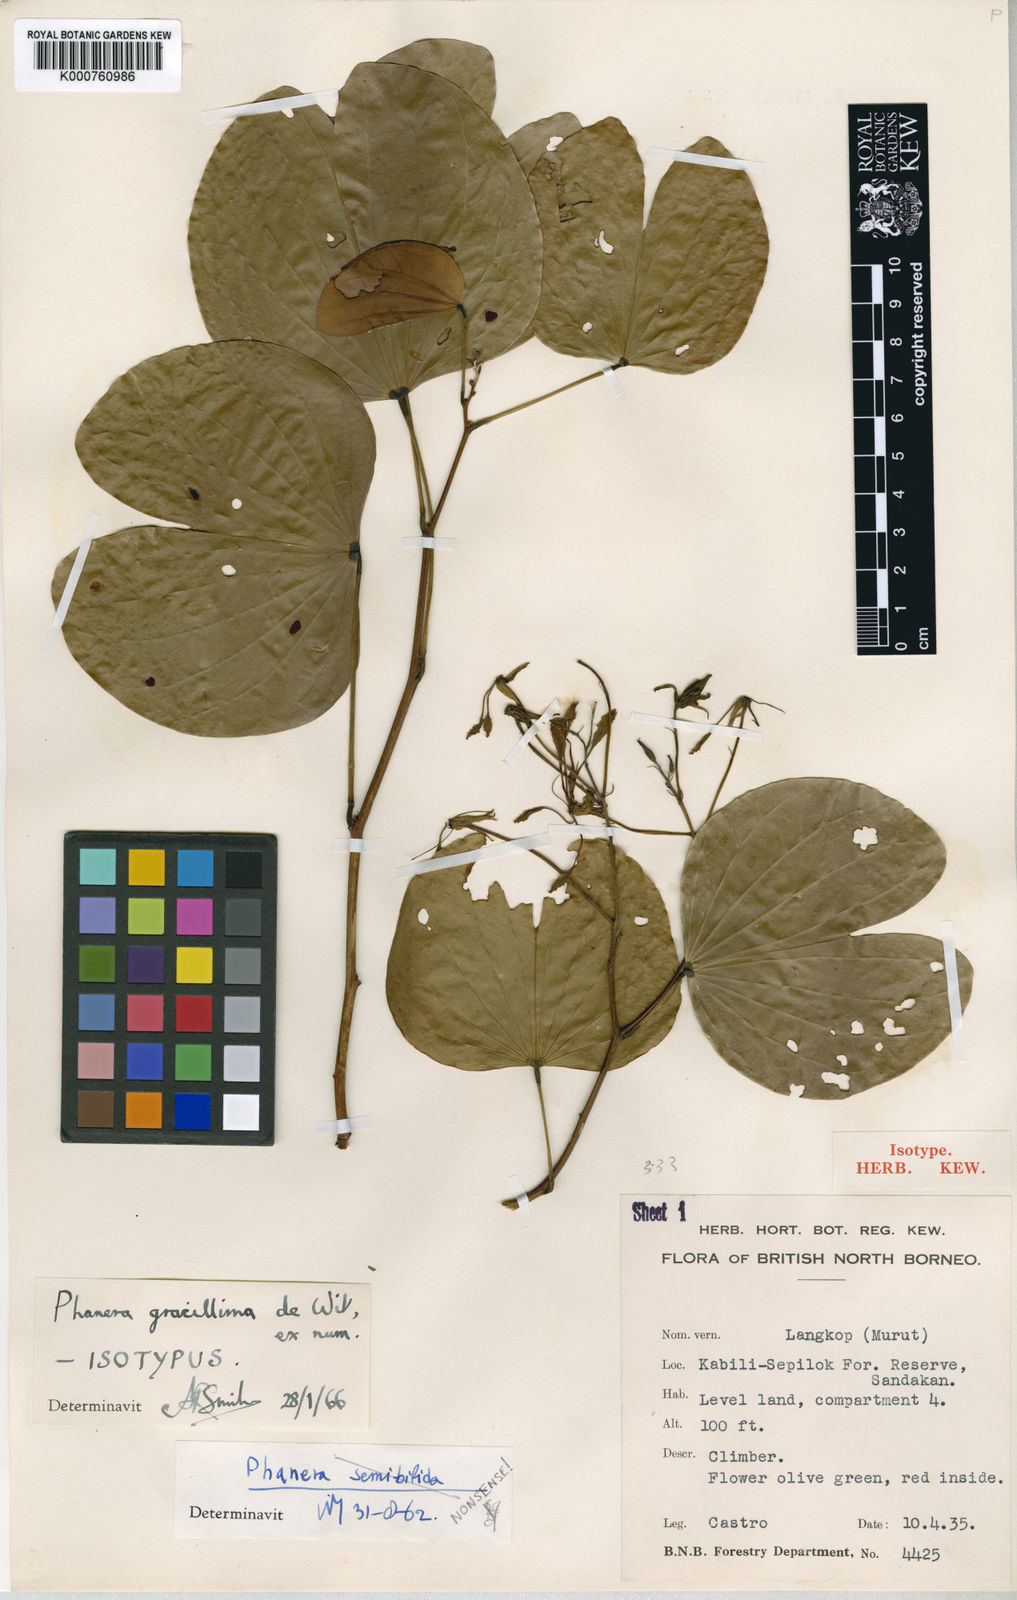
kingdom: Plantae
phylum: Tracheophyta
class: Magnoliopsida
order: Fabales
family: Fabaceae
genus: Phanera
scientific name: Phanera gracillima
